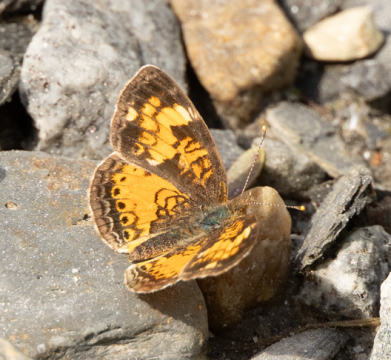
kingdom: Animalia
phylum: Arthropoda
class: Insecta
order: Lepidoptera
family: Nymphalidae
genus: Phyciodes
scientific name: Phyciodes tharos
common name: Northern Crescent
